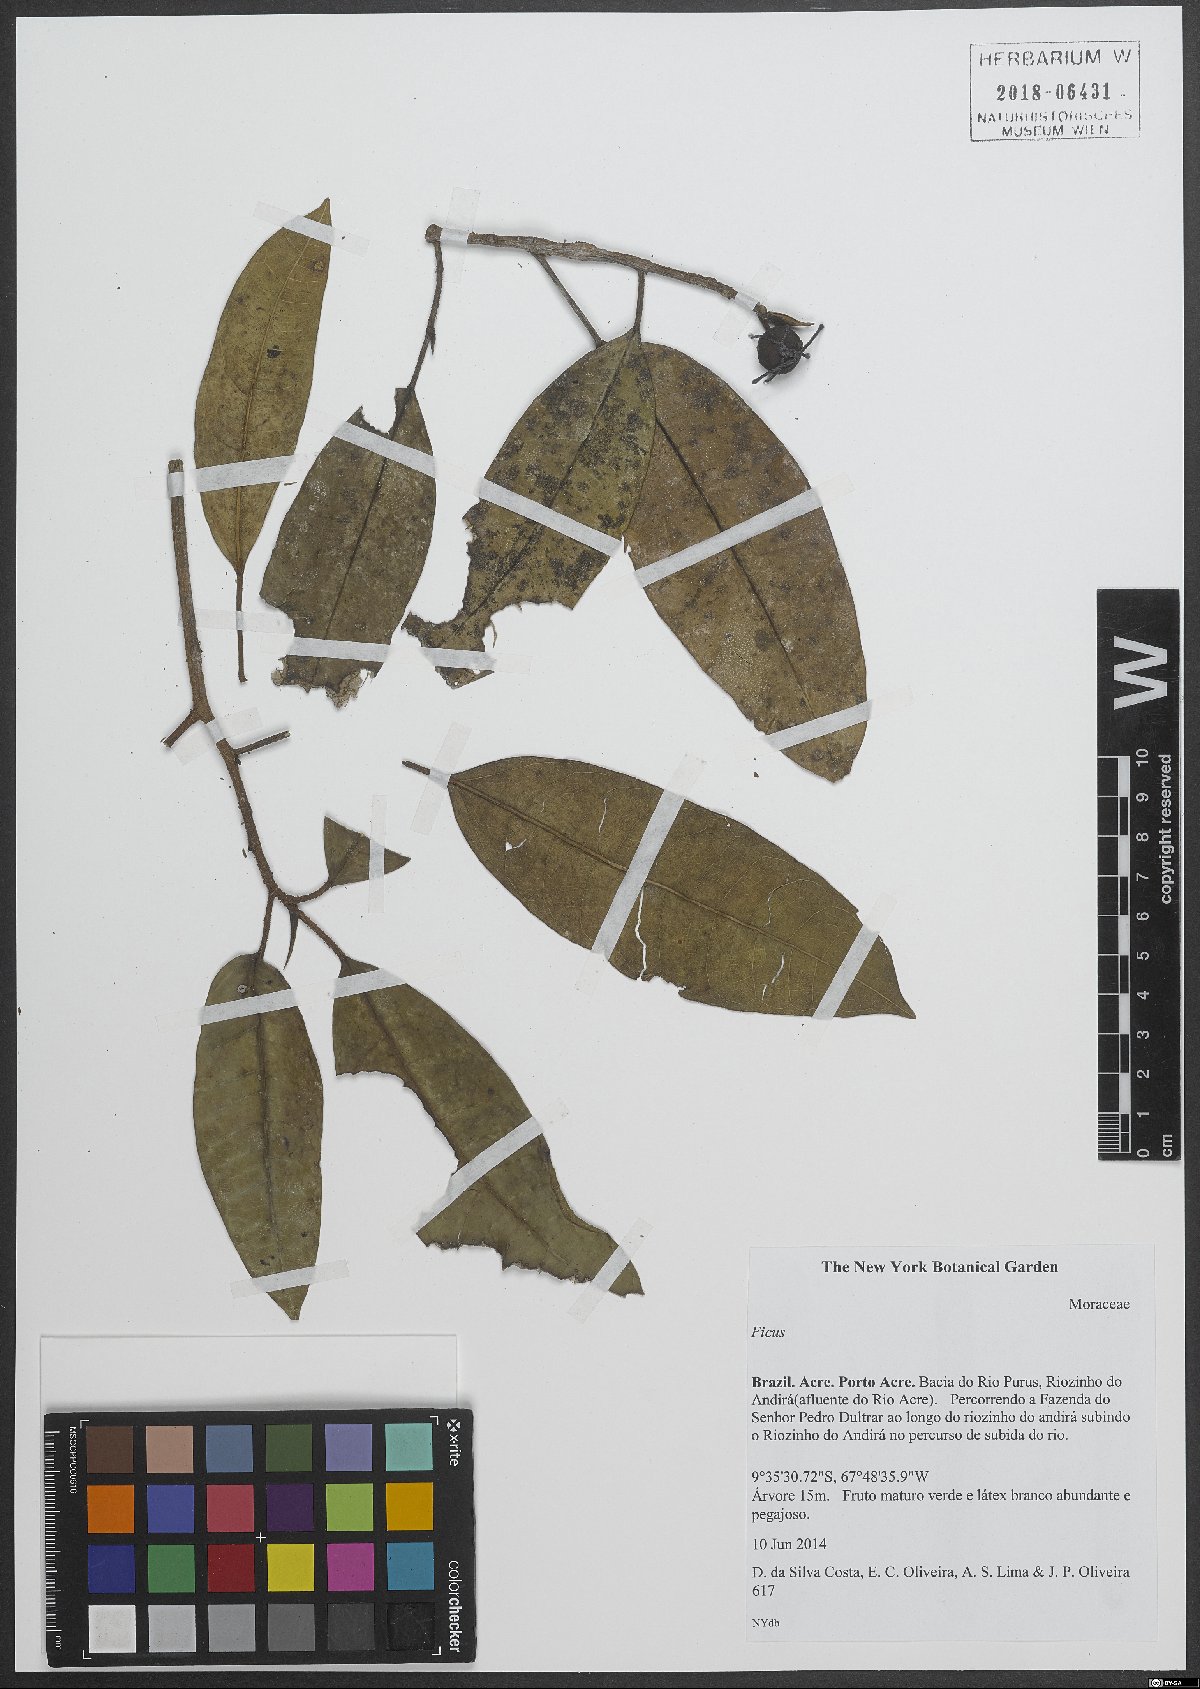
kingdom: Plantae
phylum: Tracheophyta
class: Magnoliopsida
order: Rosales
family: Moraceae
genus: Ficus
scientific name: Ficus
